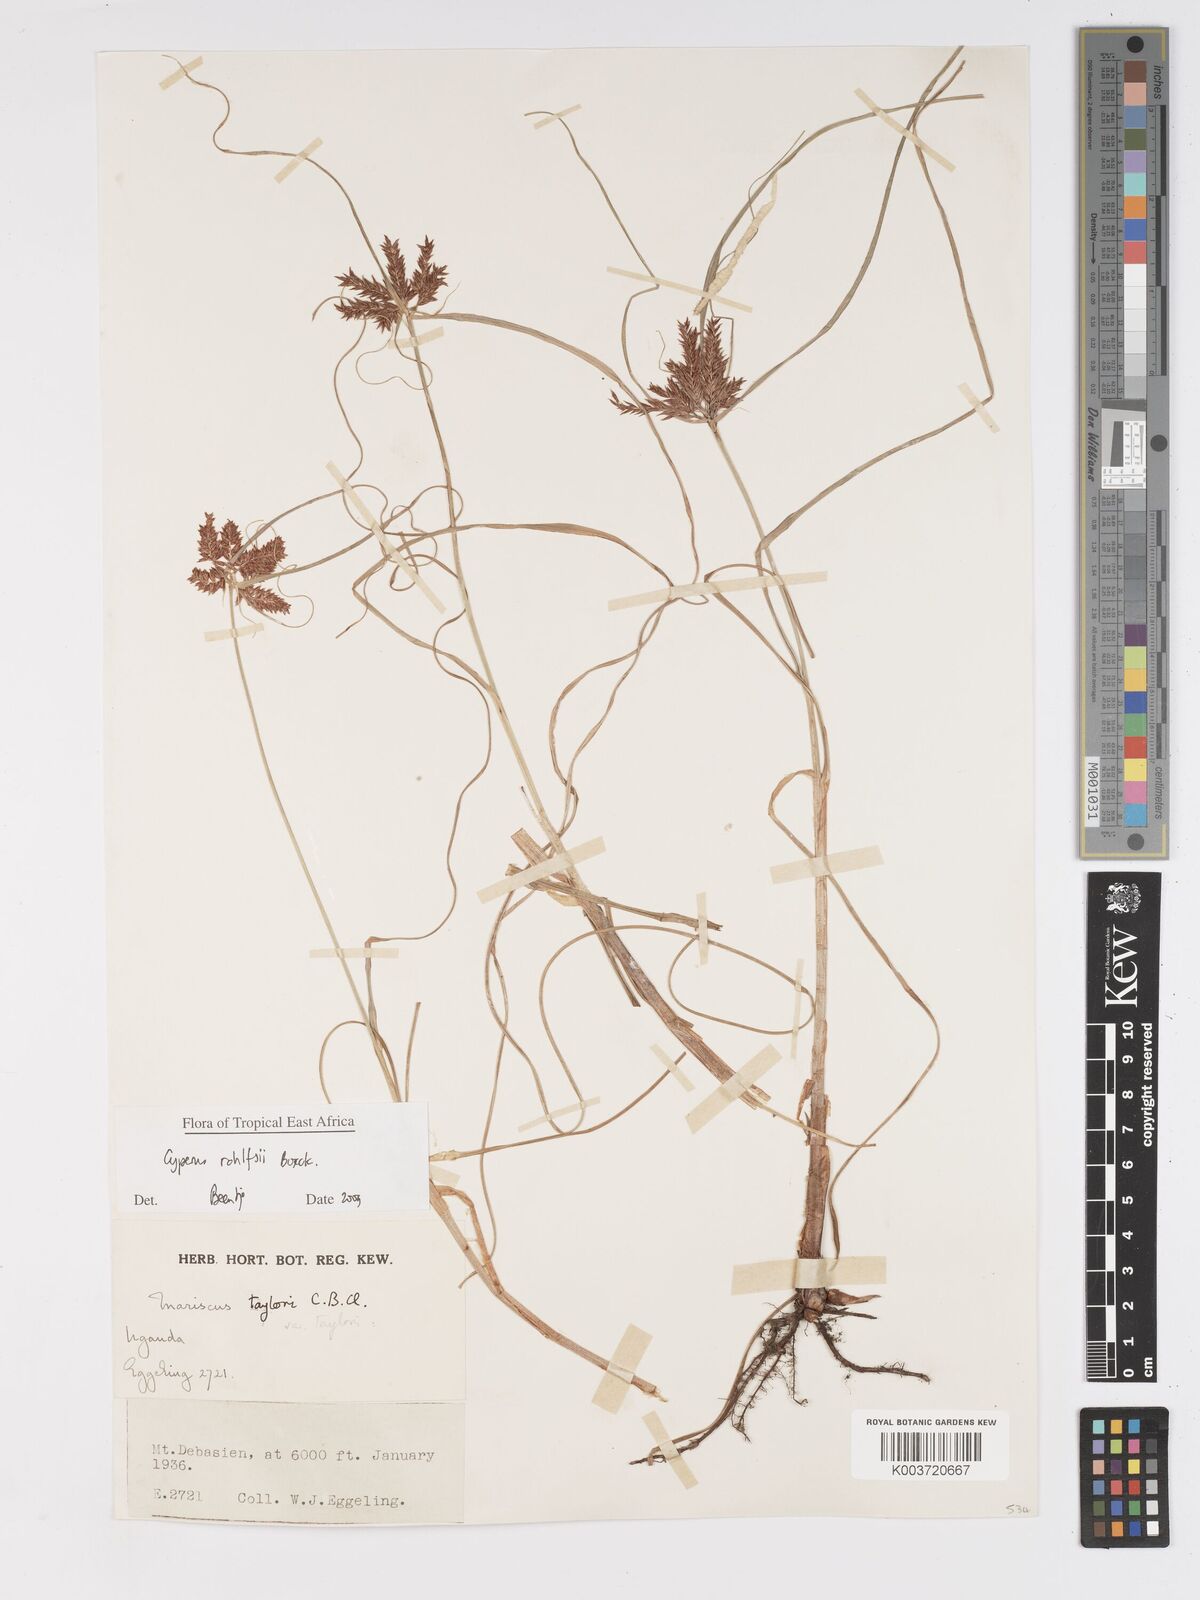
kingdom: Plantae
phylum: Tracheophyta
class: Liliopsida
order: Poales
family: Cyperaceae
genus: Cyperus
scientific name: Cyperus rohlfsii
